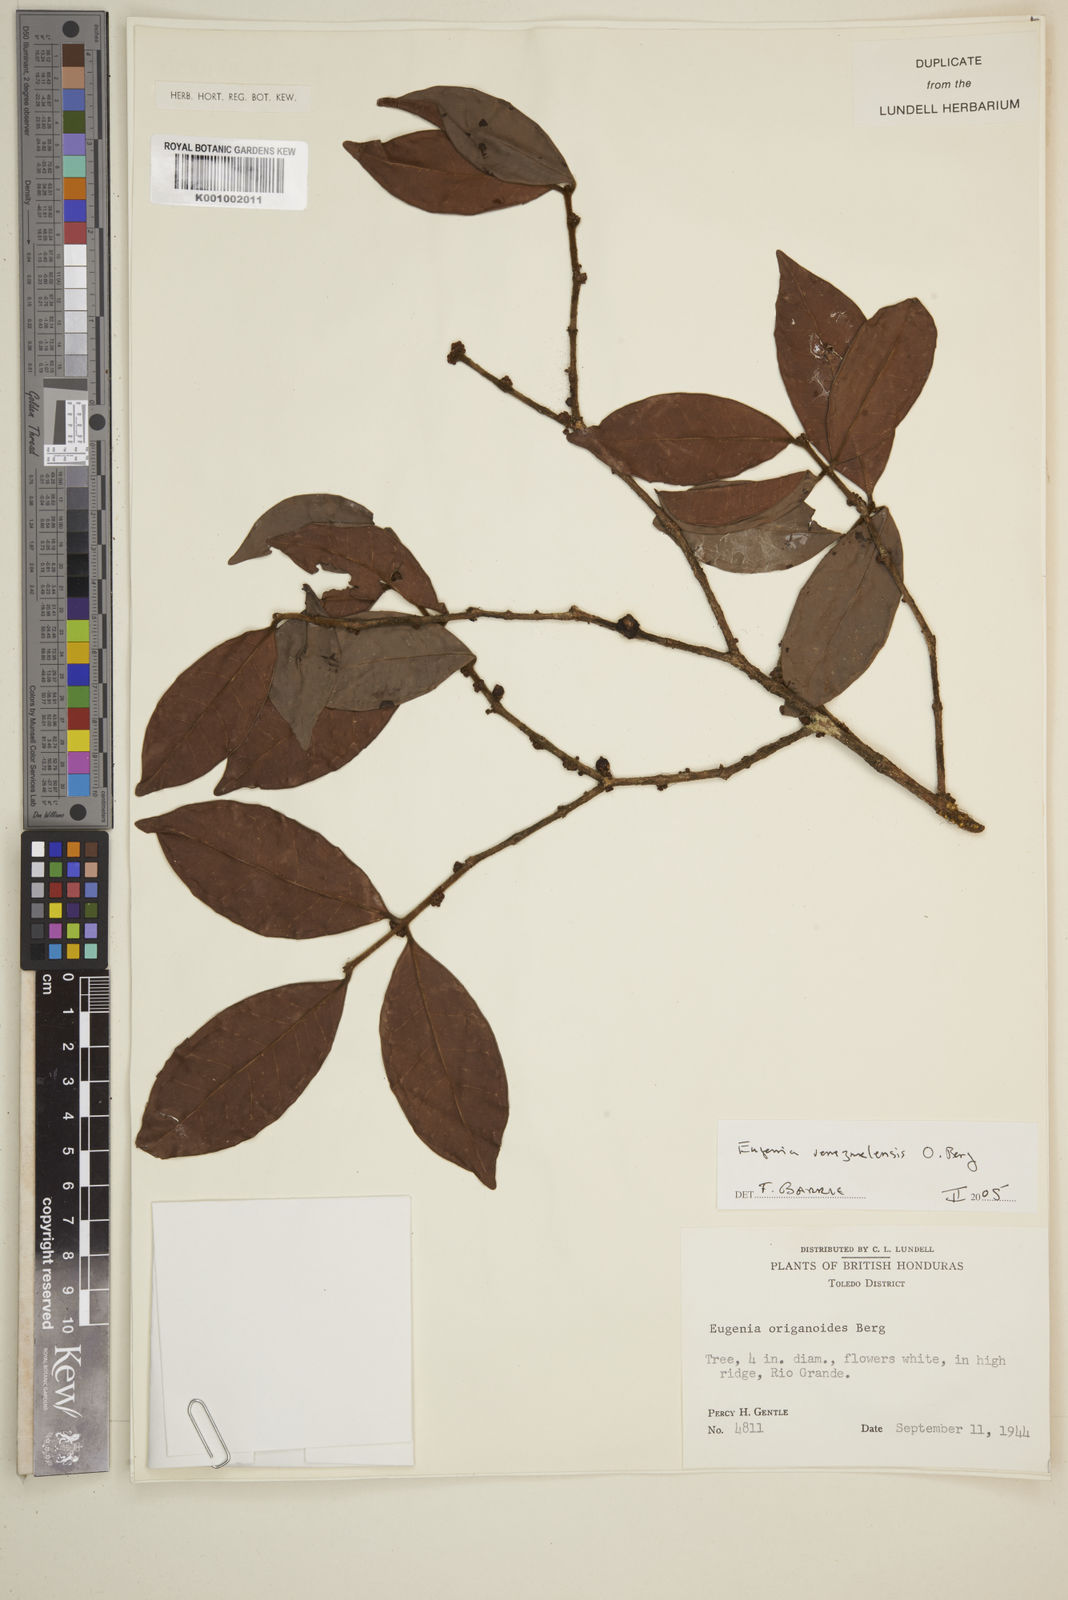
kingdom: Plantae
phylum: Tracheophyta
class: Magnoliopsida
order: Myrtales
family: Myrtaceae
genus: Eugenia
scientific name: Eugenia venezuelensis
